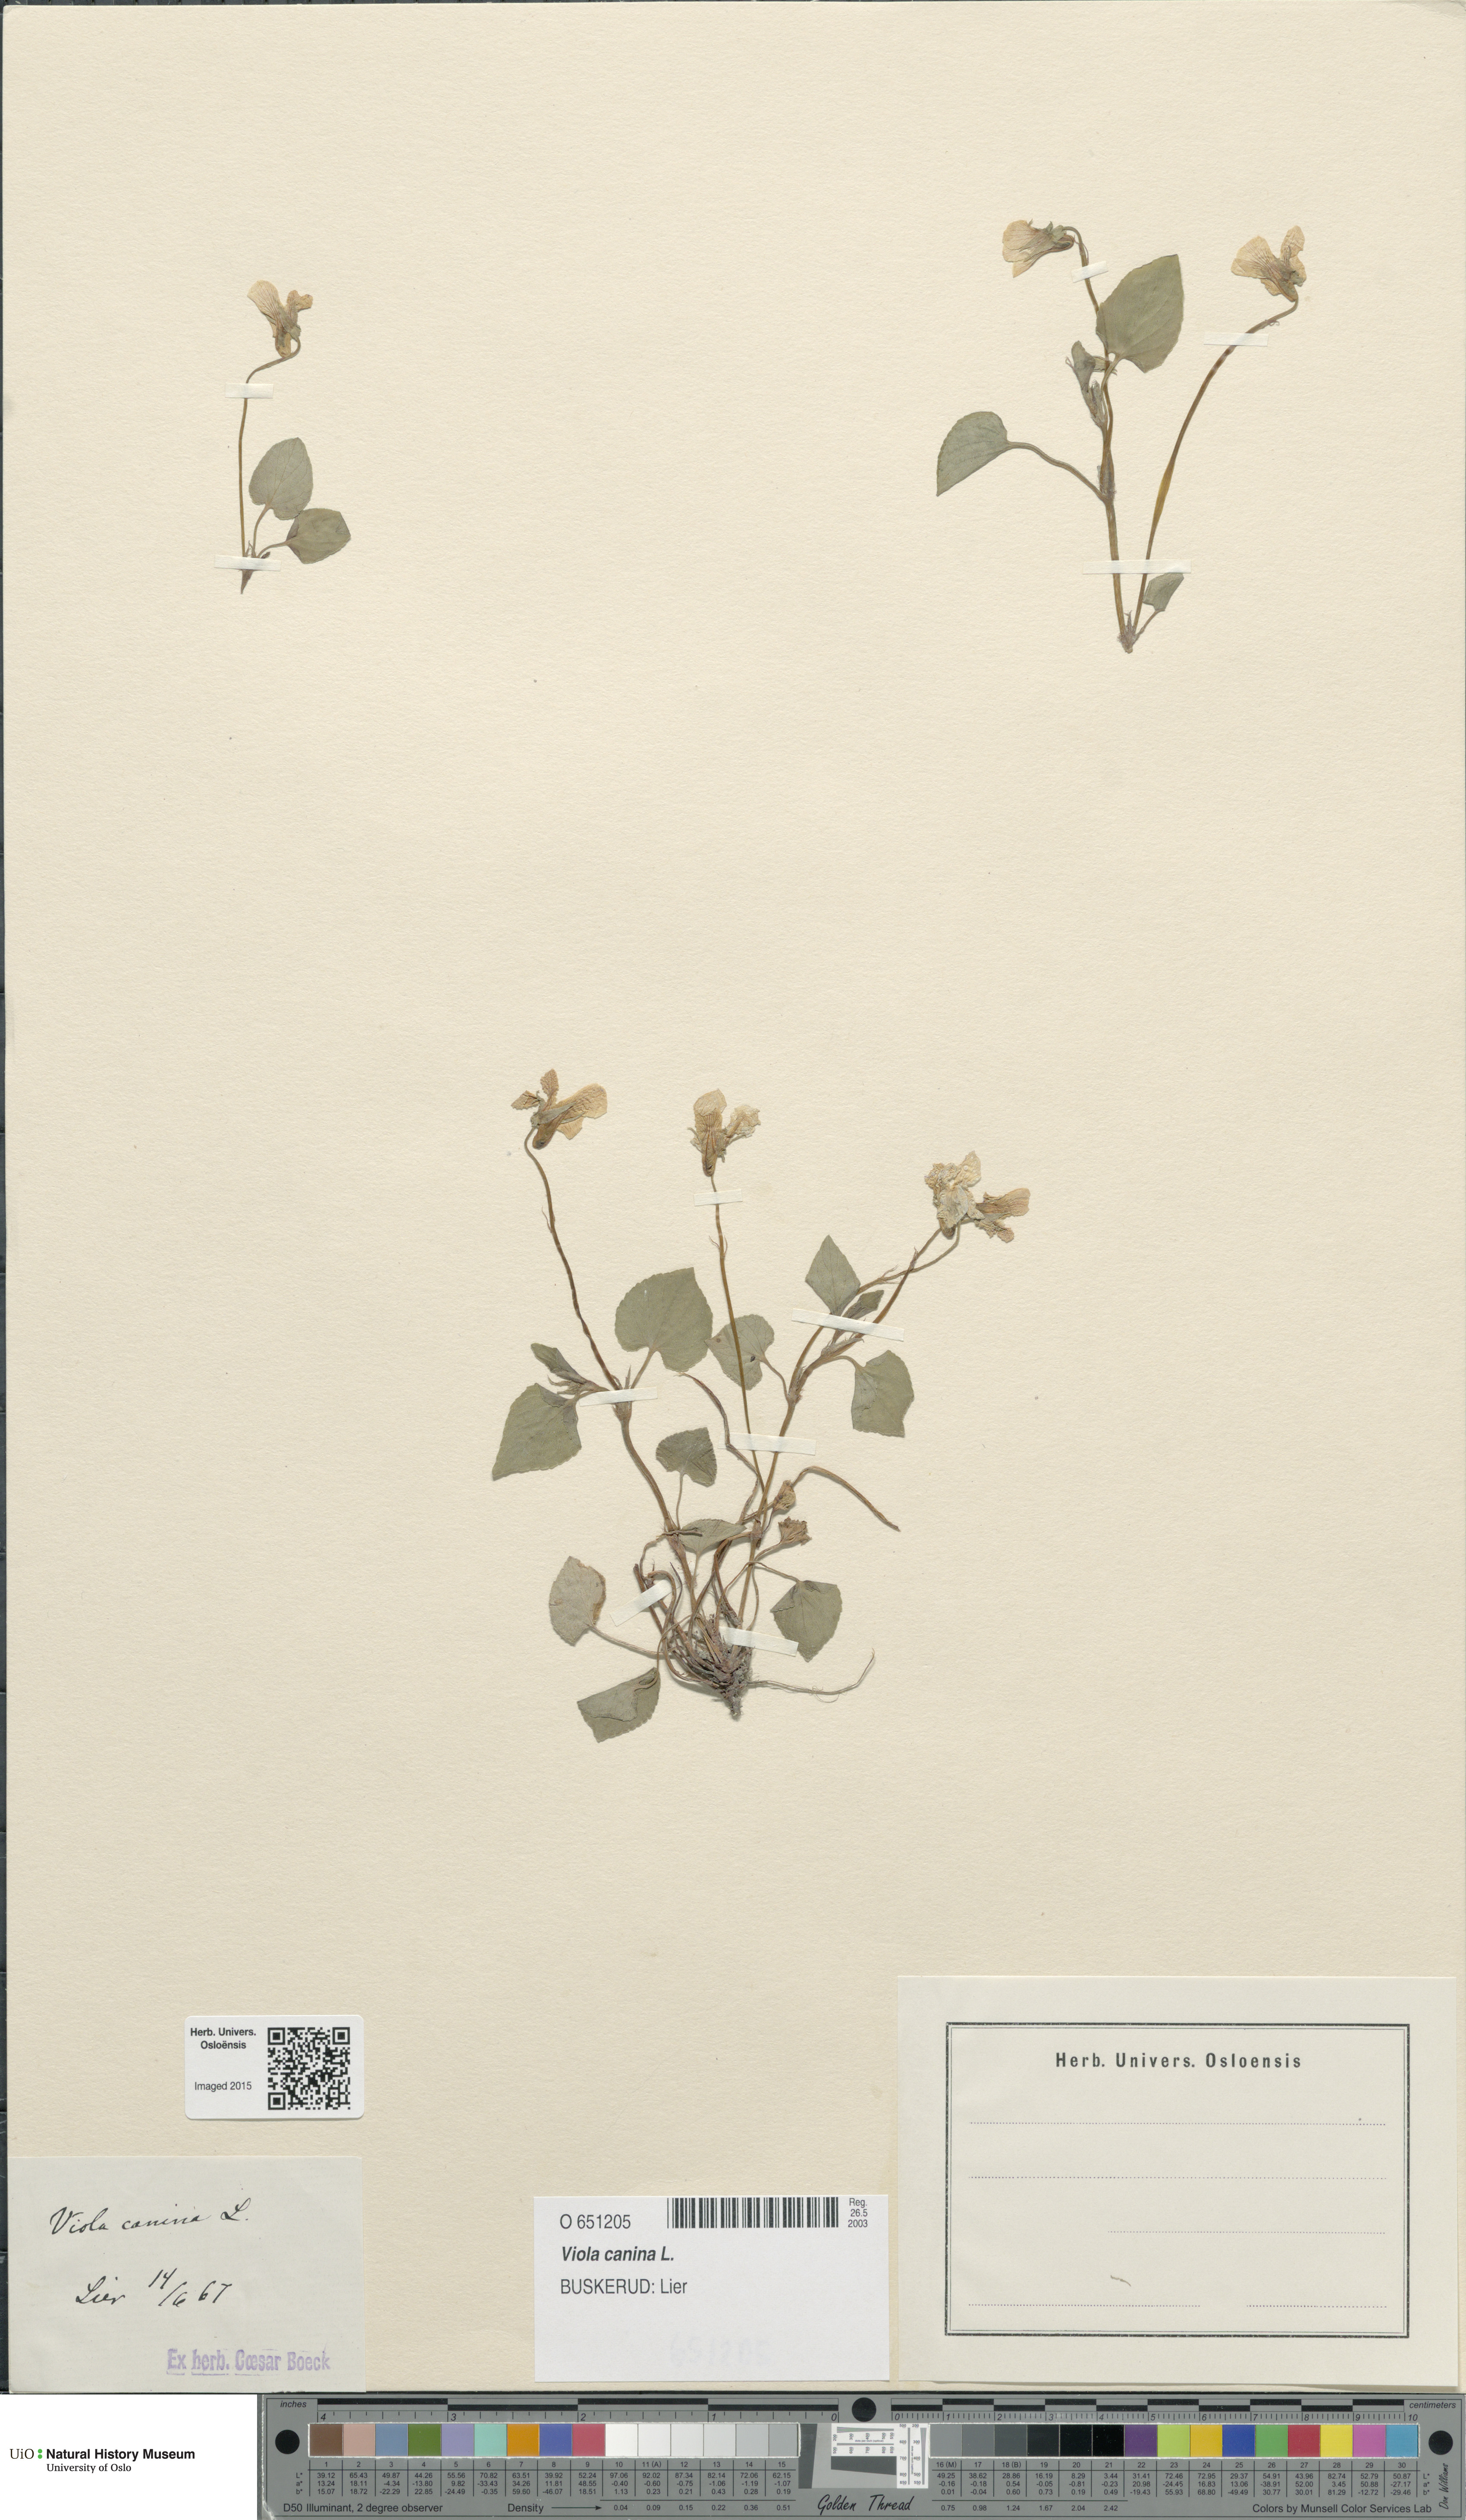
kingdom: Plantae
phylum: Tracheophyta
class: Magnoliopsida
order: Malpighiales
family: Violaceae
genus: Viola
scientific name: Viola canina
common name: Heath dog-violet
